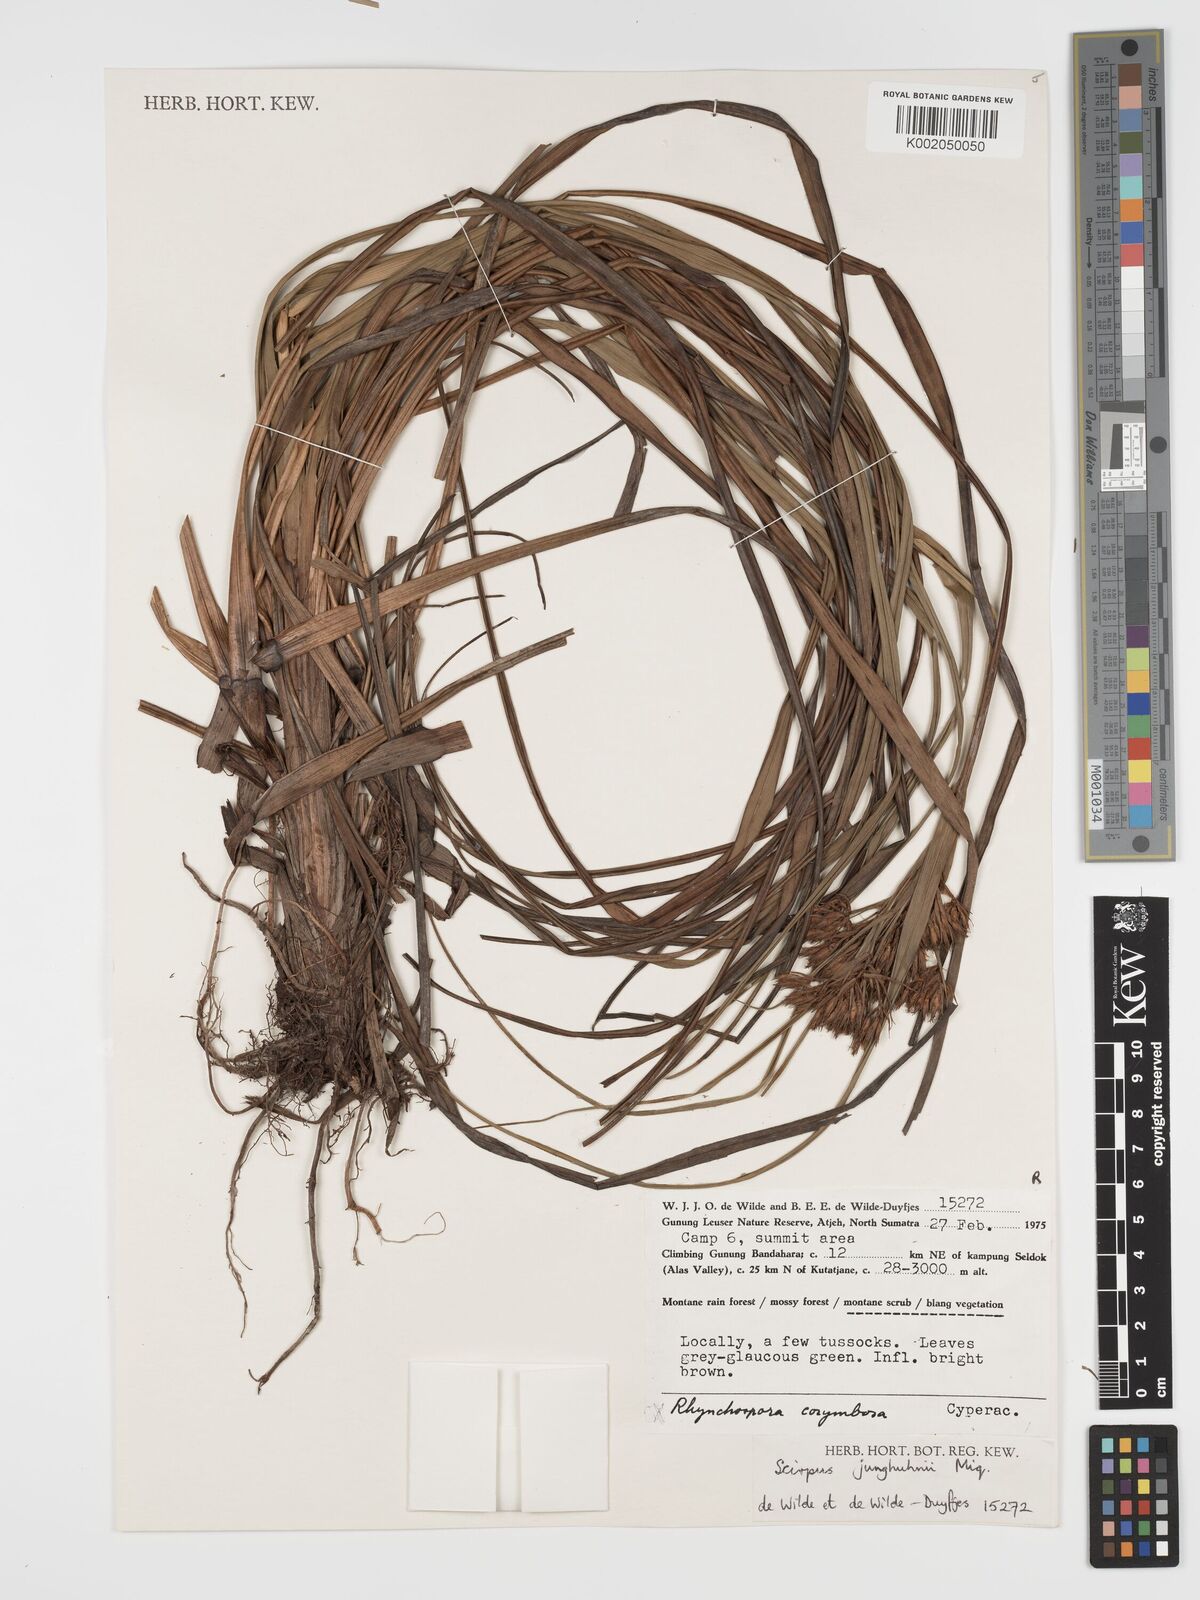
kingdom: Plantae
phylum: Tracheophyta
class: Liliopsida
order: Poales
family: Cyperaceae
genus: Sumatroscirpus
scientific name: Sumatroscirpus junghuhnii
